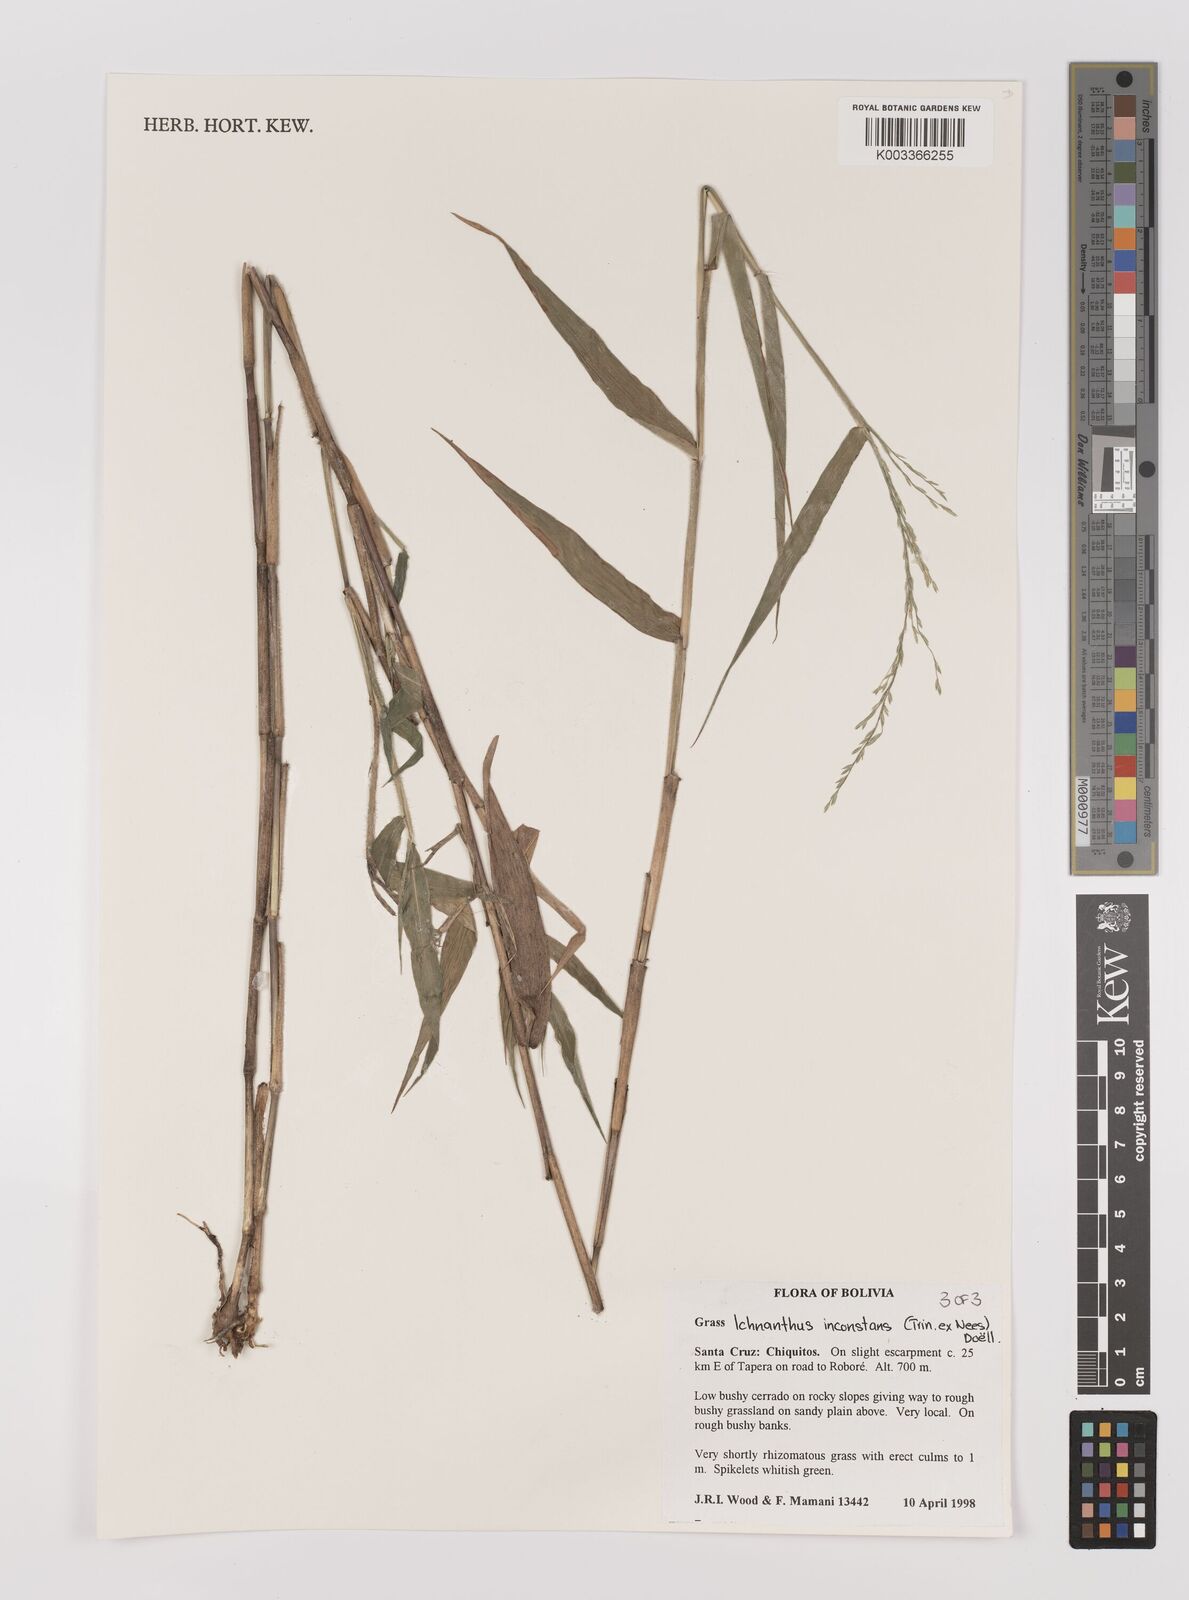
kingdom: Plantae
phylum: Tracheophyta
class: Liliopsida
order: Poales
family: Poaceae
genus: Ichnanthus
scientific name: Ichnanthus inconstans
